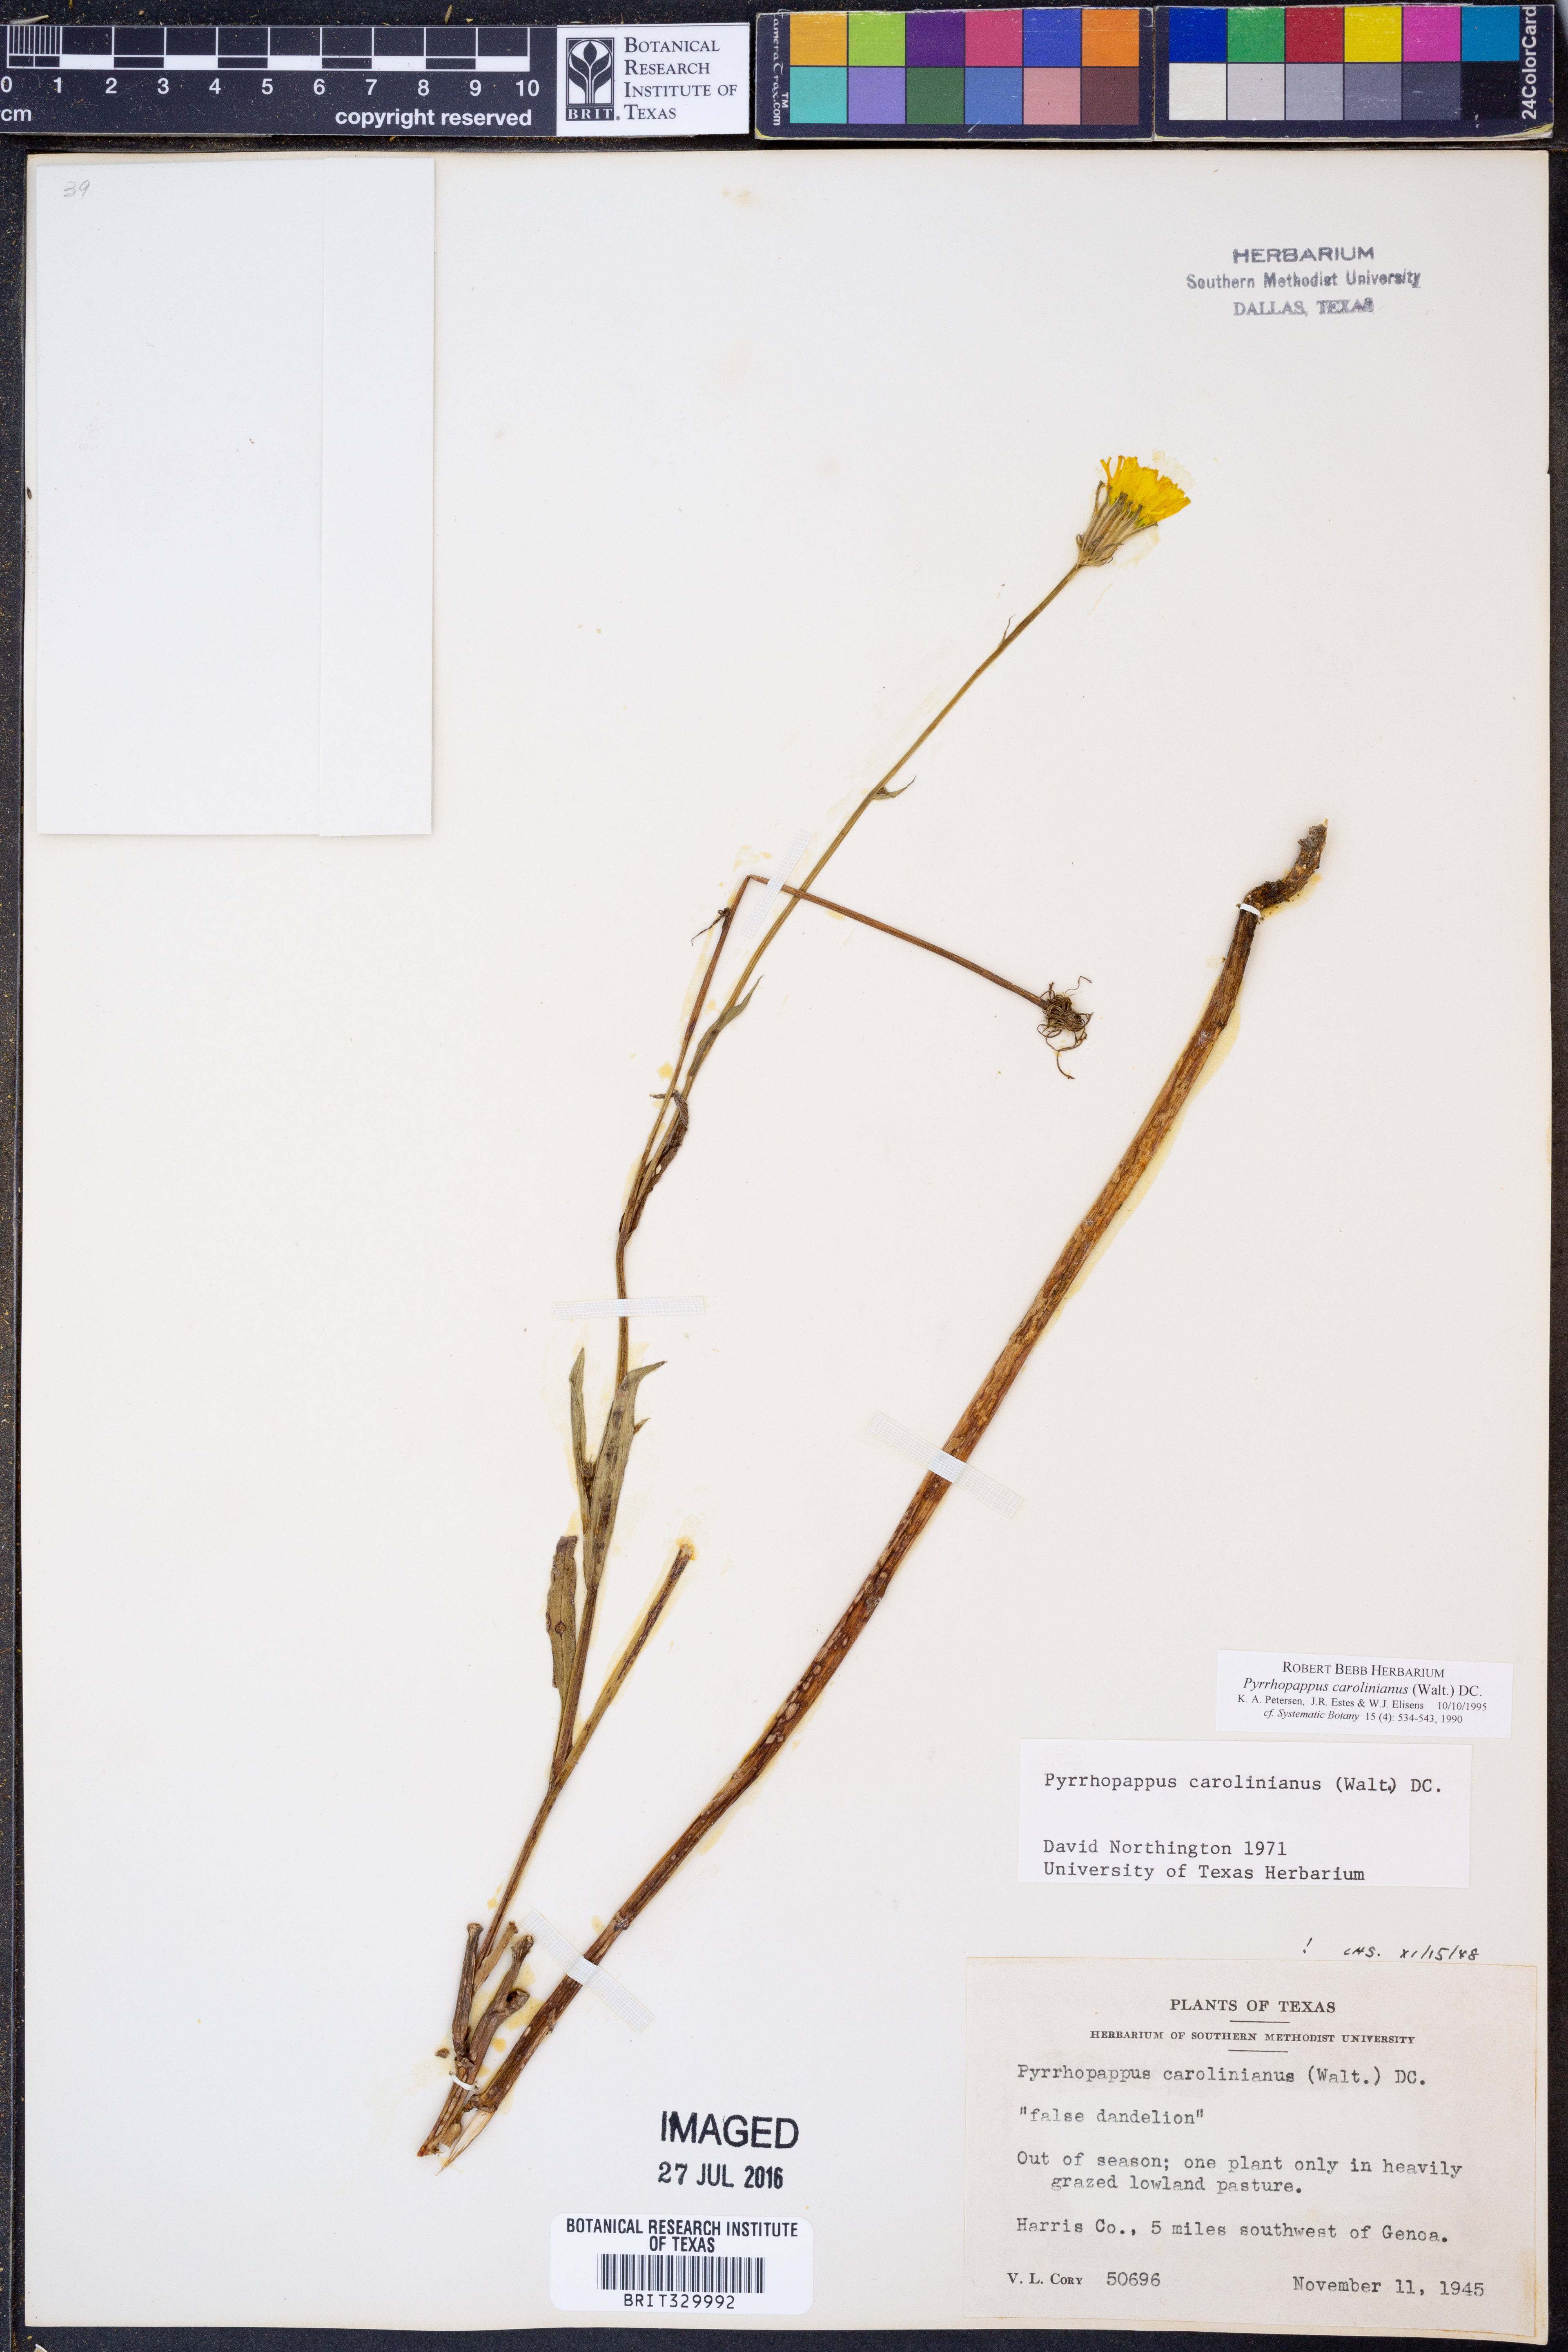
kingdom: Plantae
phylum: Tracheophyta
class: Magnoliopsida
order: Asterales
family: Asteraceae
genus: Pyrrhopappus
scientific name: Pyrrhopappus carolinianus
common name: Carolina desert-chicory
